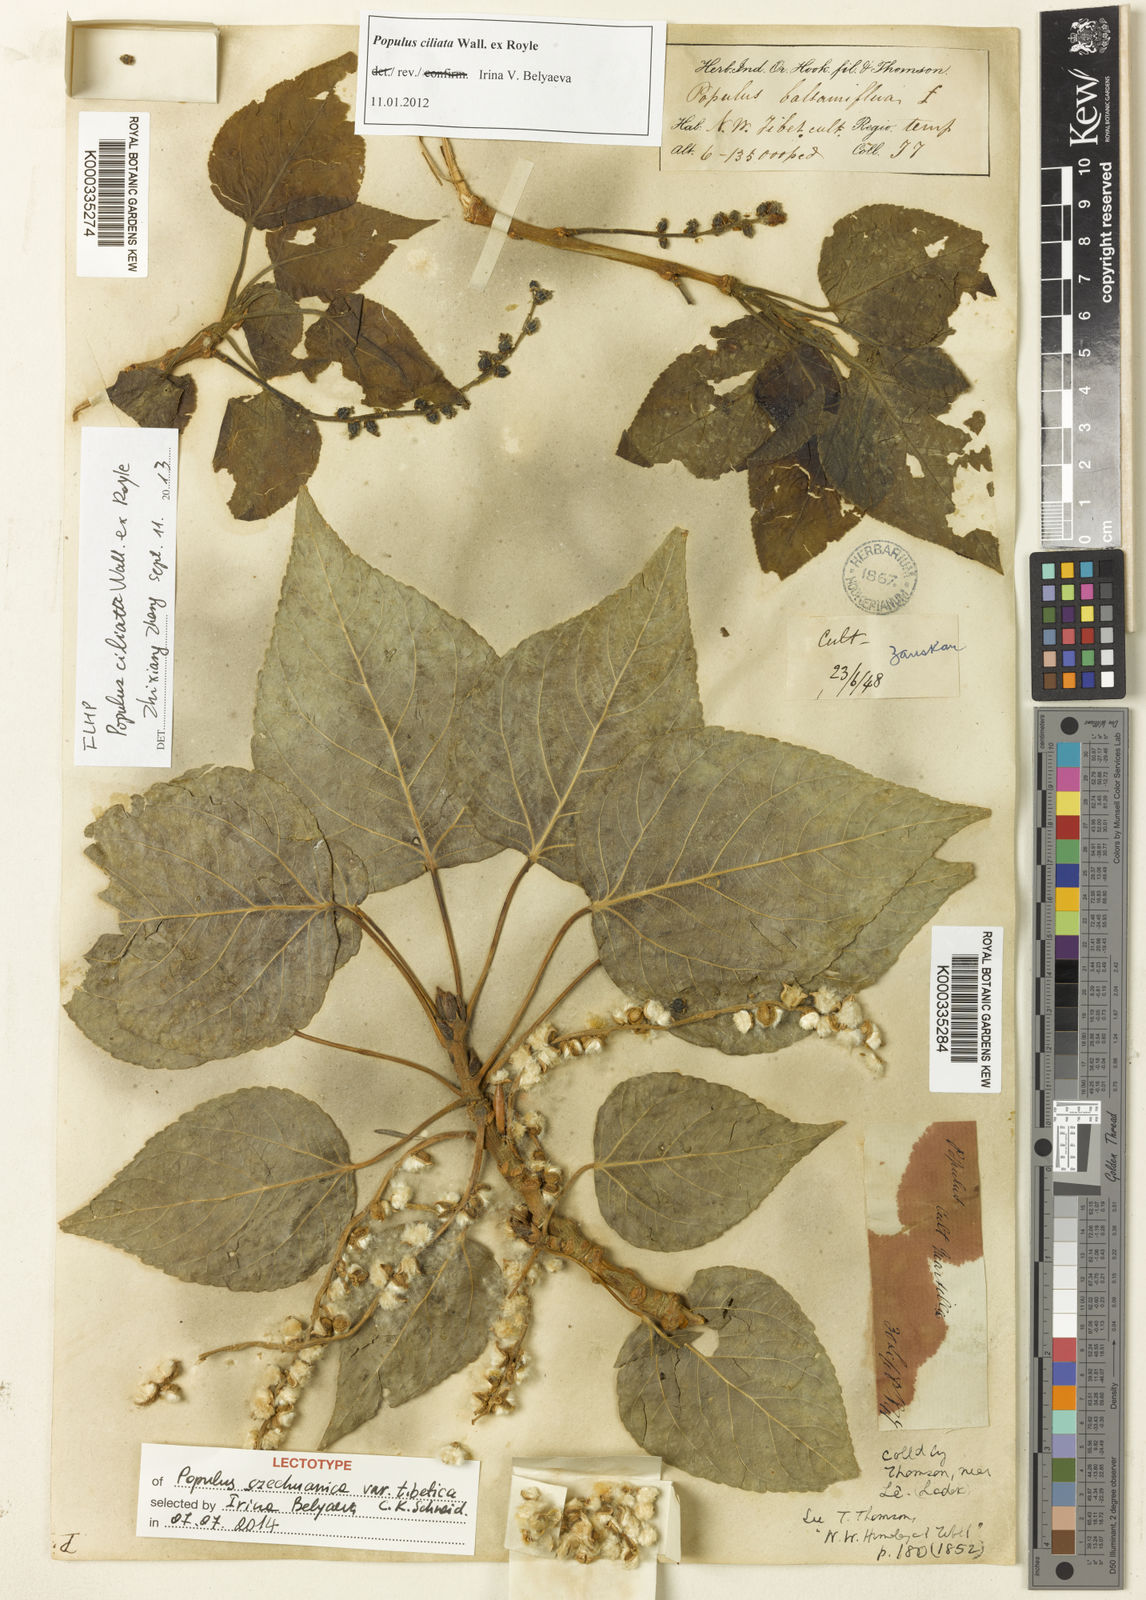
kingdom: Plantae
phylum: Tracheophyta
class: Magnoliopsida
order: Malpighiales
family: Salicaceae
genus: Populus
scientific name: Populus
